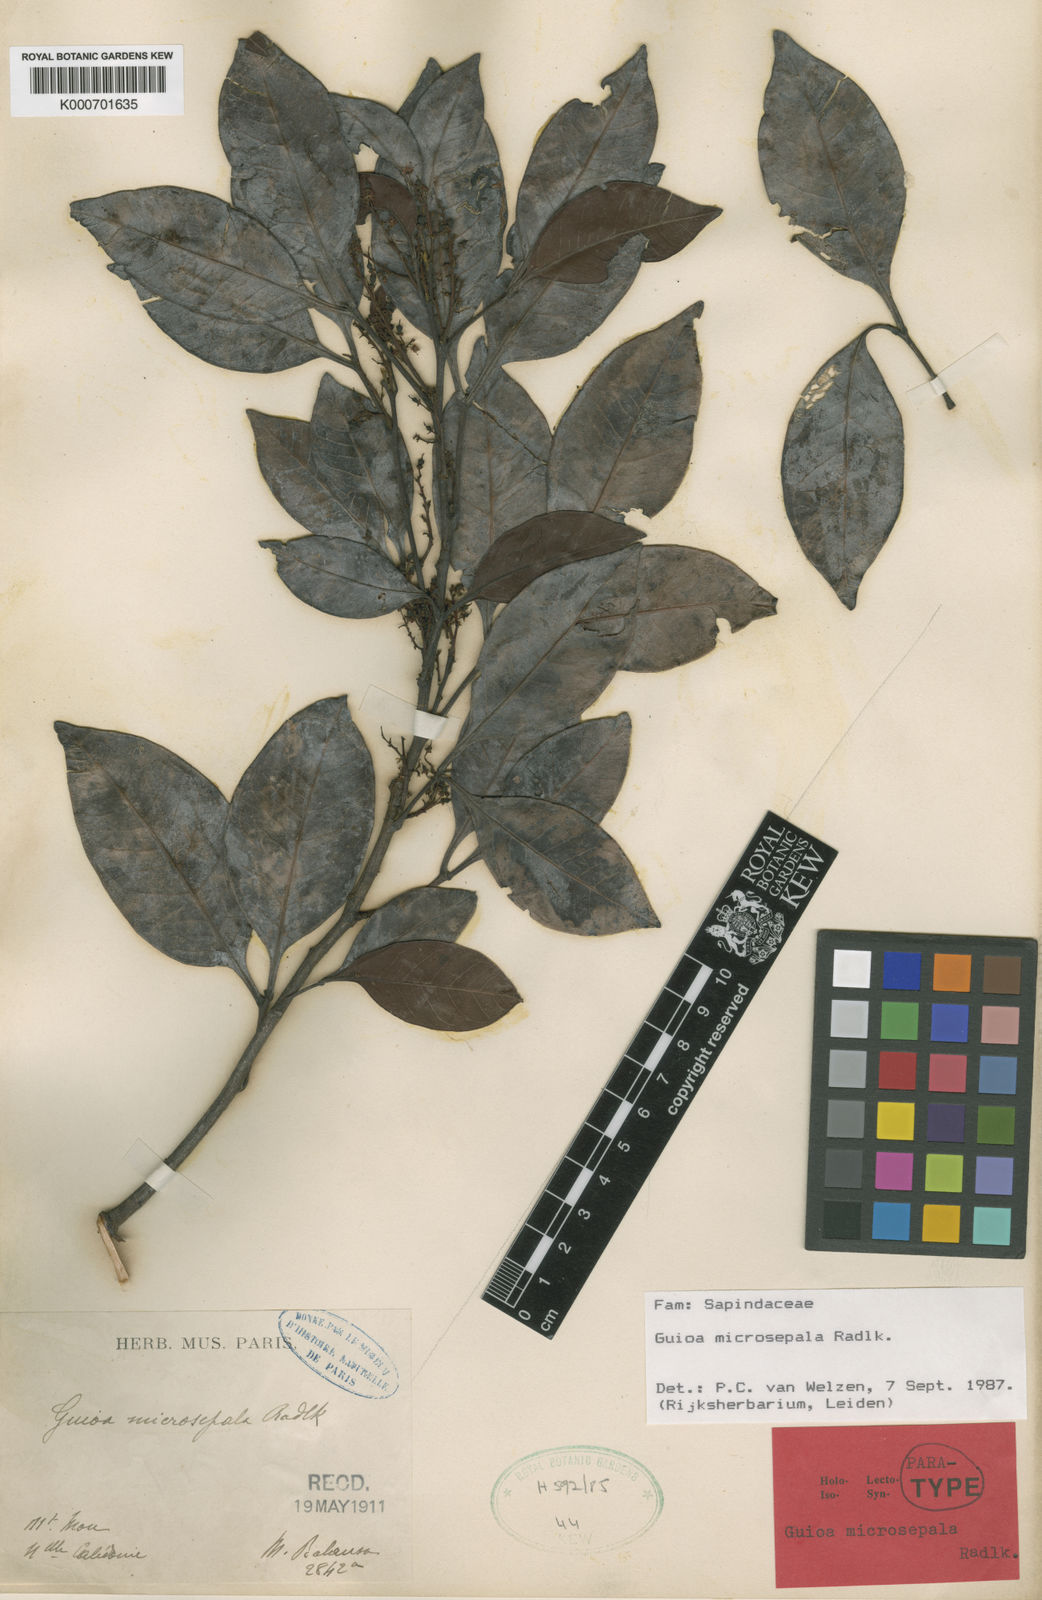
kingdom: Plantae
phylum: Tracheophyta
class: Magnoliopsida
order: Sapindales
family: Sapindaceae
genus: Guioa
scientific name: Guioa microsepala
